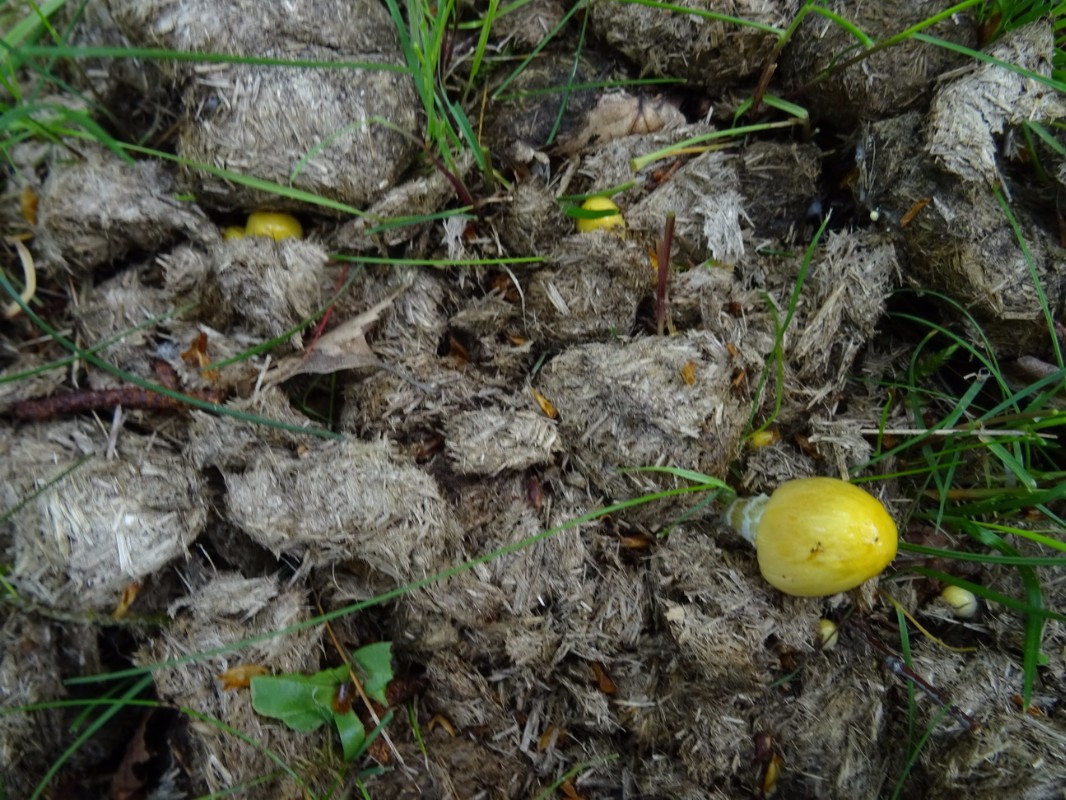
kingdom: Fungi
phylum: Basidiomycota
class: Agaricomycetes
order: Agaricales
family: Bolbitiaceae
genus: Bolbitius
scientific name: Bolbitius titubans
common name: almindelig gulhat
